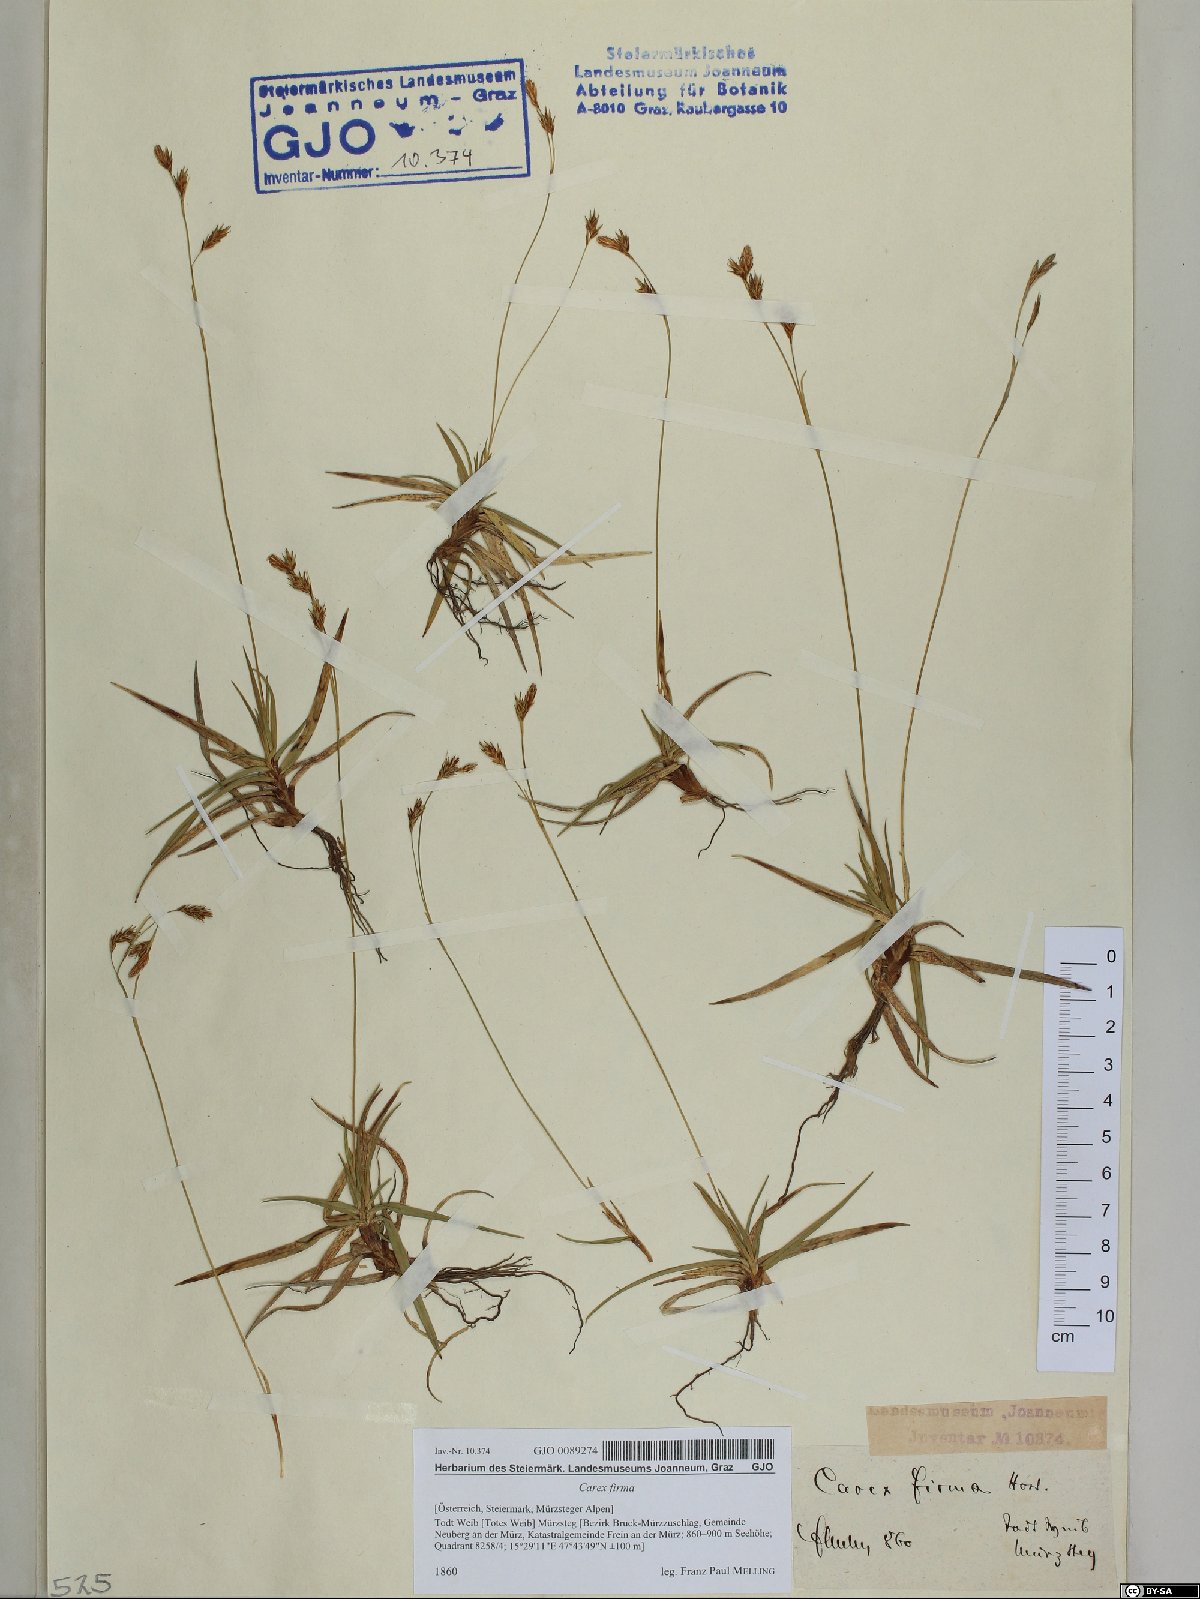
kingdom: Plantae
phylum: Tracheophyta
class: Liliopsida
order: Poales
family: Cyperaceae
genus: Carex
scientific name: Carex firma
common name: Dwarf pillow sedge
